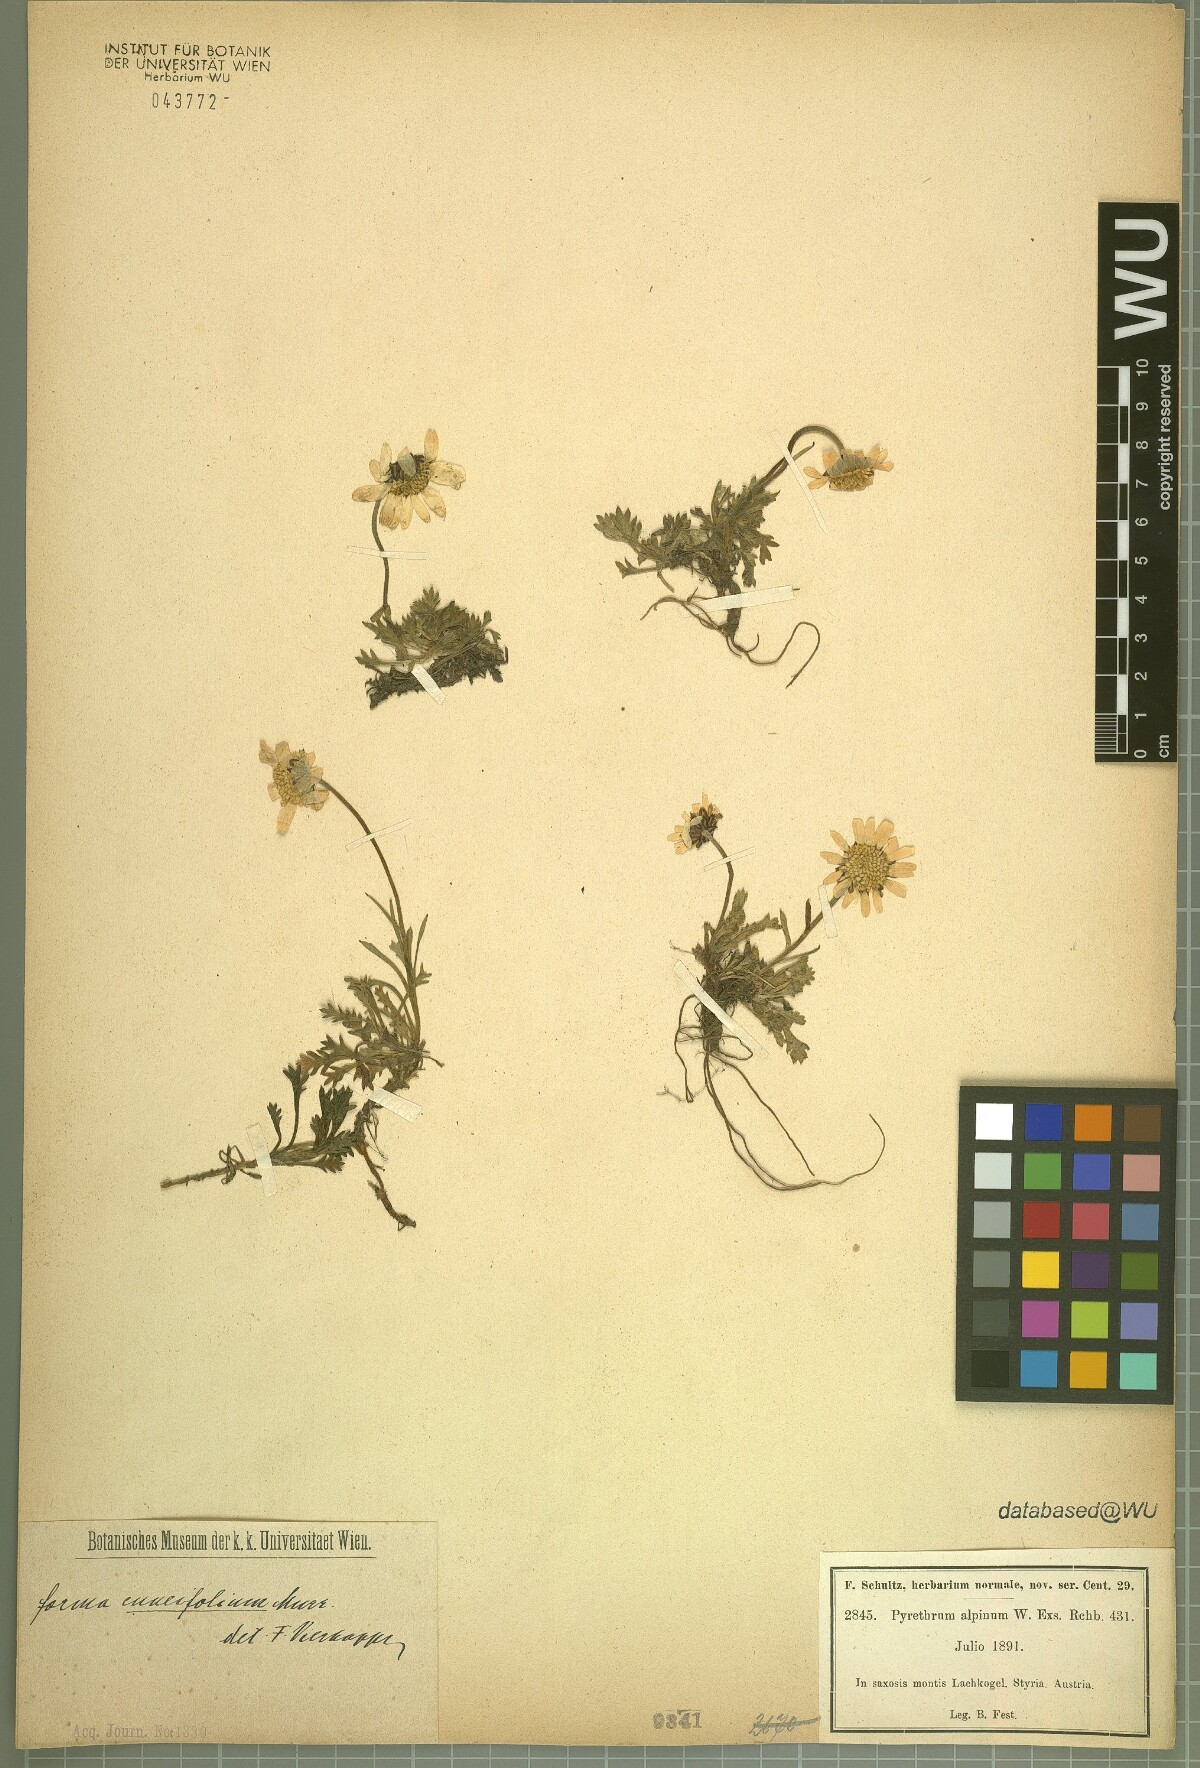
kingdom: Plantae
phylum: Tracheophyta
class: Magnoliopsida
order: Asterales
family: Asteraceae
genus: Leucanthemopsis
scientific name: Leucanthemopsis alpina
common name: Alpine moon daisy
